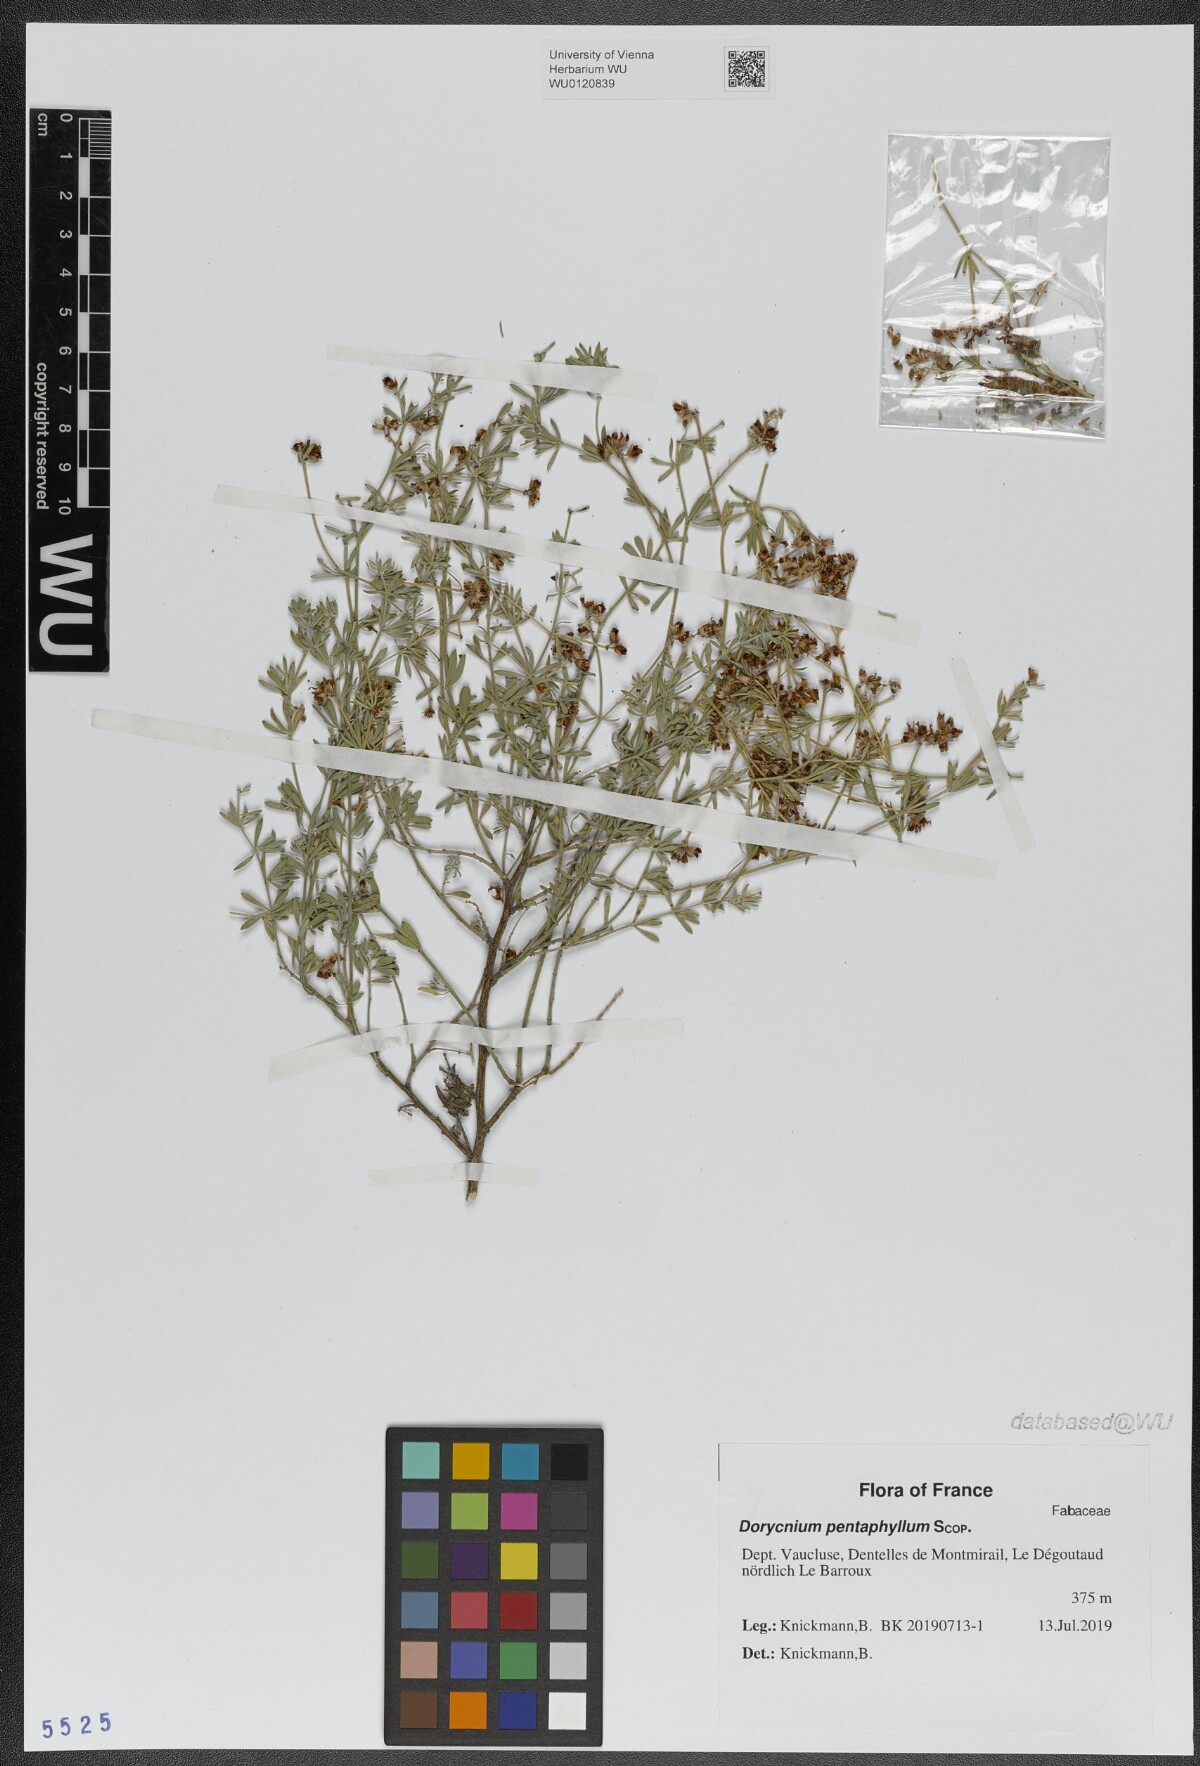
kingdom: Plantae
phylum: Tracheophyta
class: Magnoliopsida
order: Fabales
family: Fabaceae
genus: Lotus
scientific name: Lotus dorycnium
